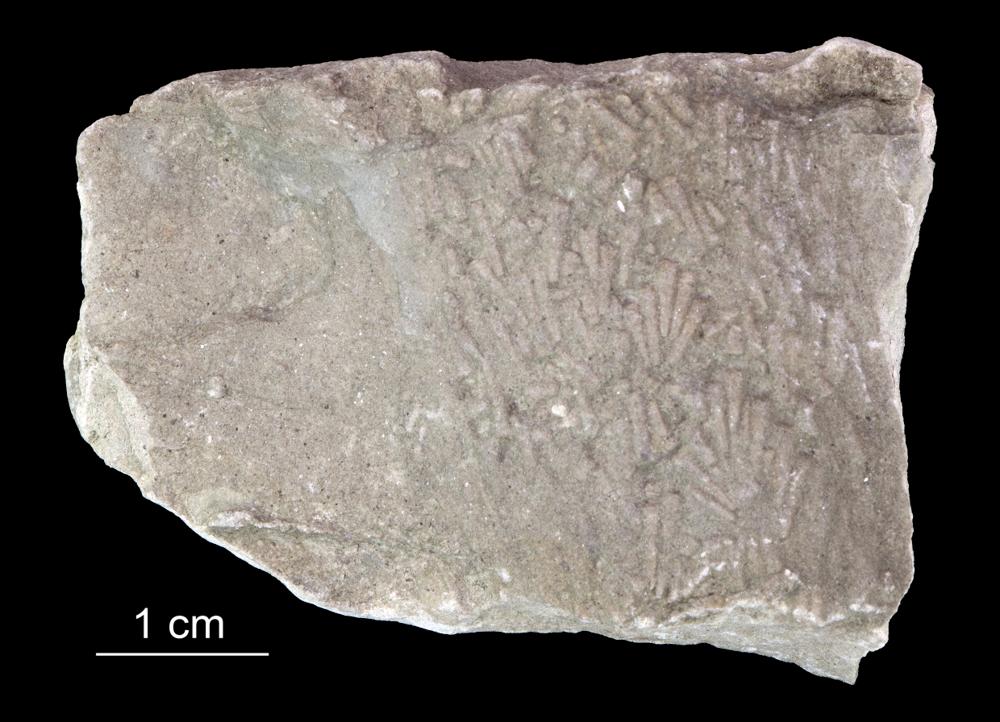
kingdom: Animalia
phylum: Annelida
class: Polychaeta
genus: Volborthella
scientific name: Volborthella tenuis
